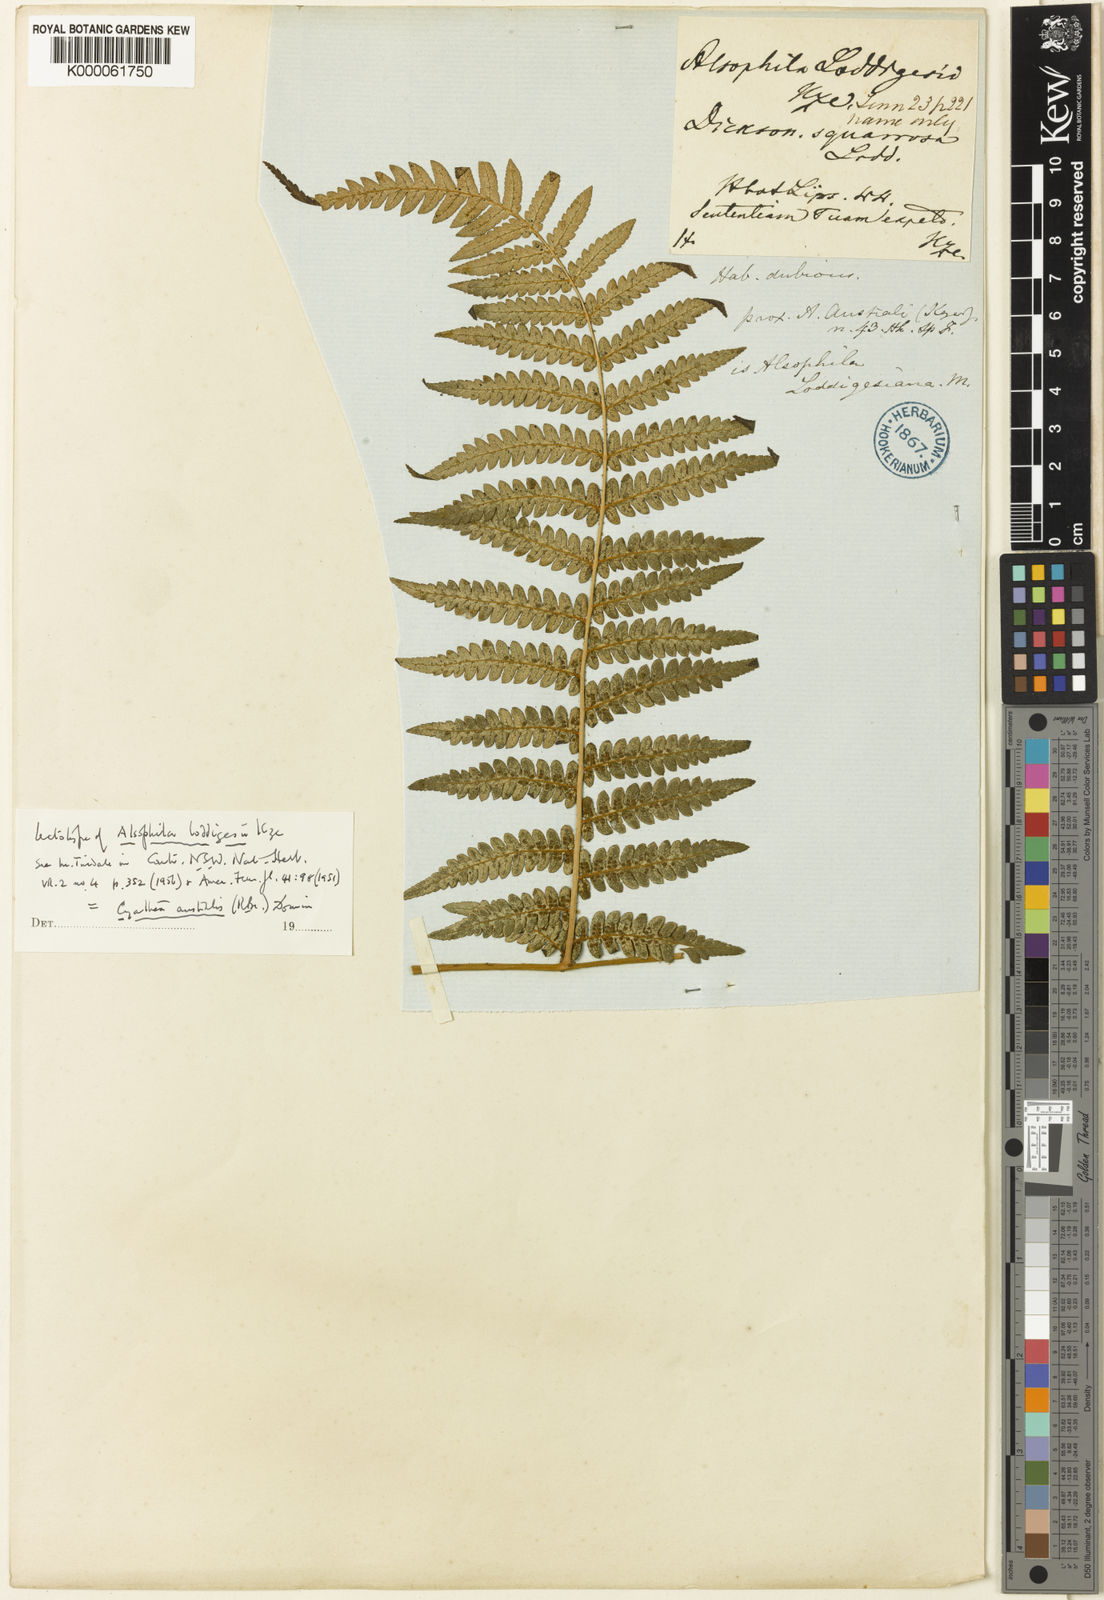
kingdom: Plantae
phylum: Tracheophyta
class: Polypodiopsida
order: Cyatheales
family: Cyatheaceae
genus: Alsophila
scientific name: Alsophila australis
